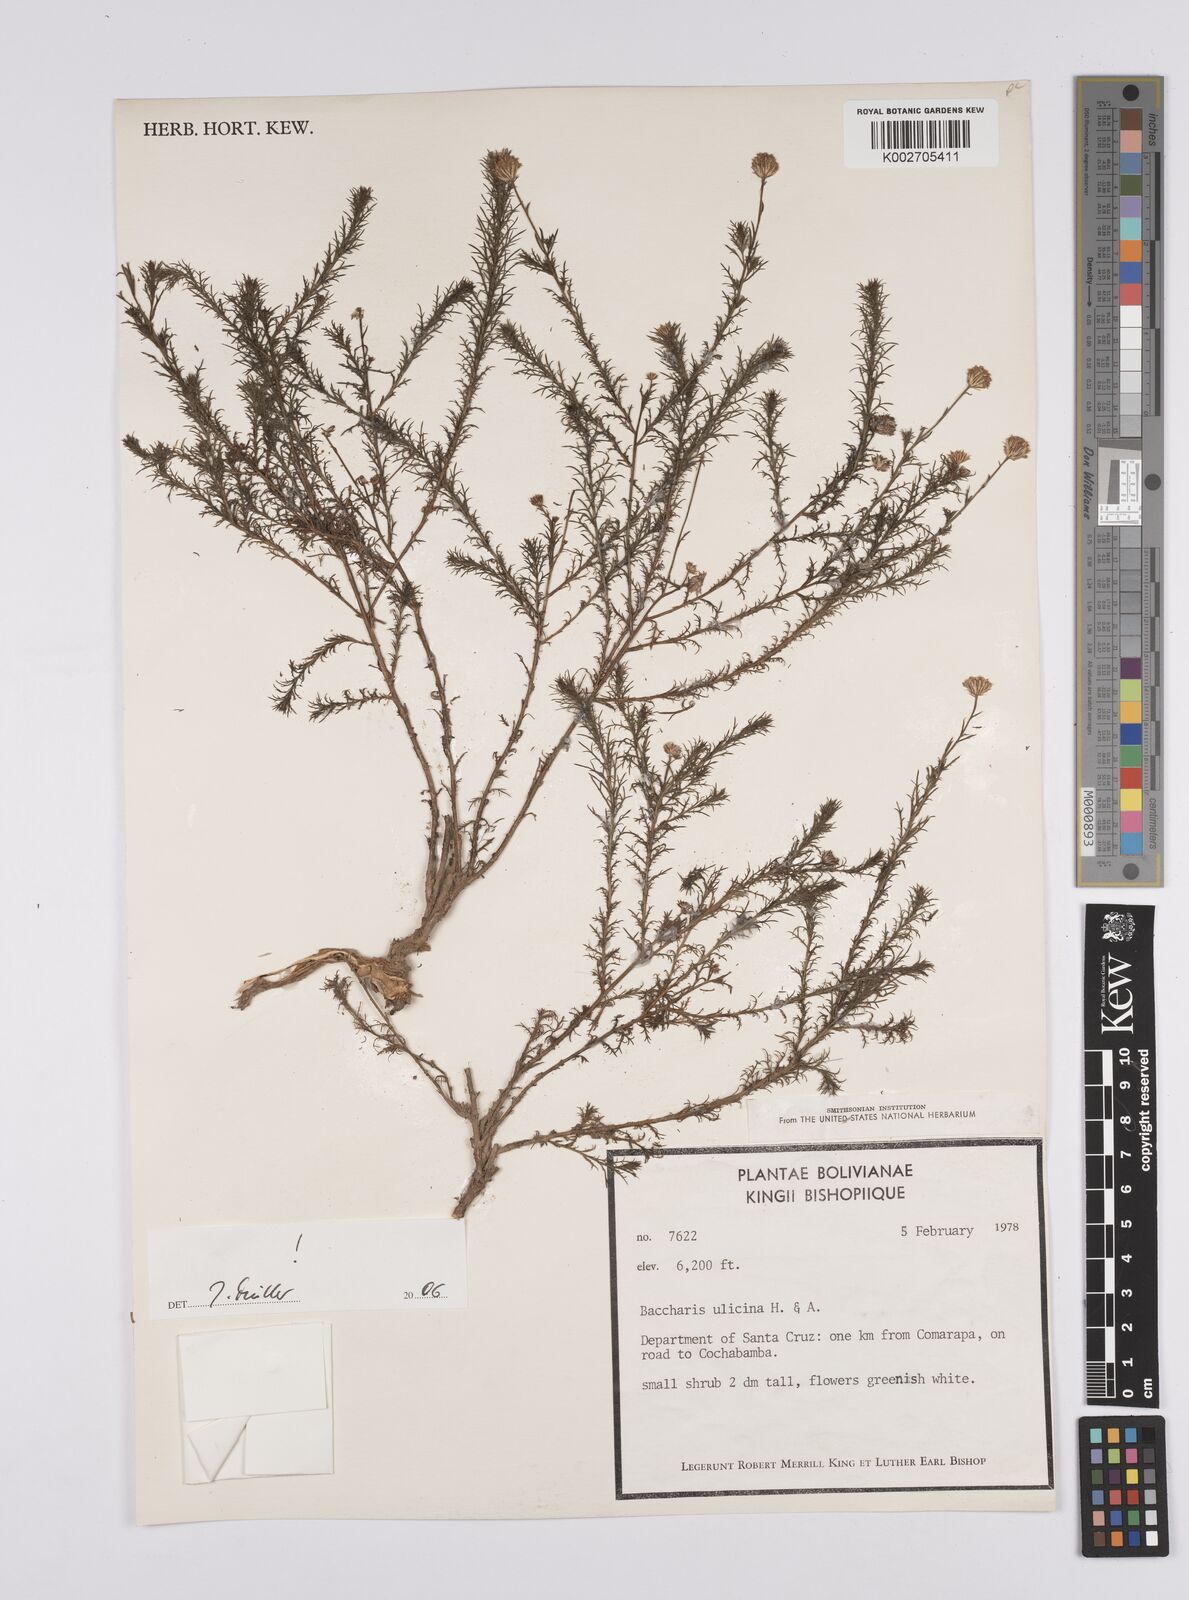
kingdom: Plantae
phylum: Tracheophyta
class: Magnoliopsida
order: Asterales
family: Asteraceae
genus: Baccharis
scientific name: Baccharis ulicina
